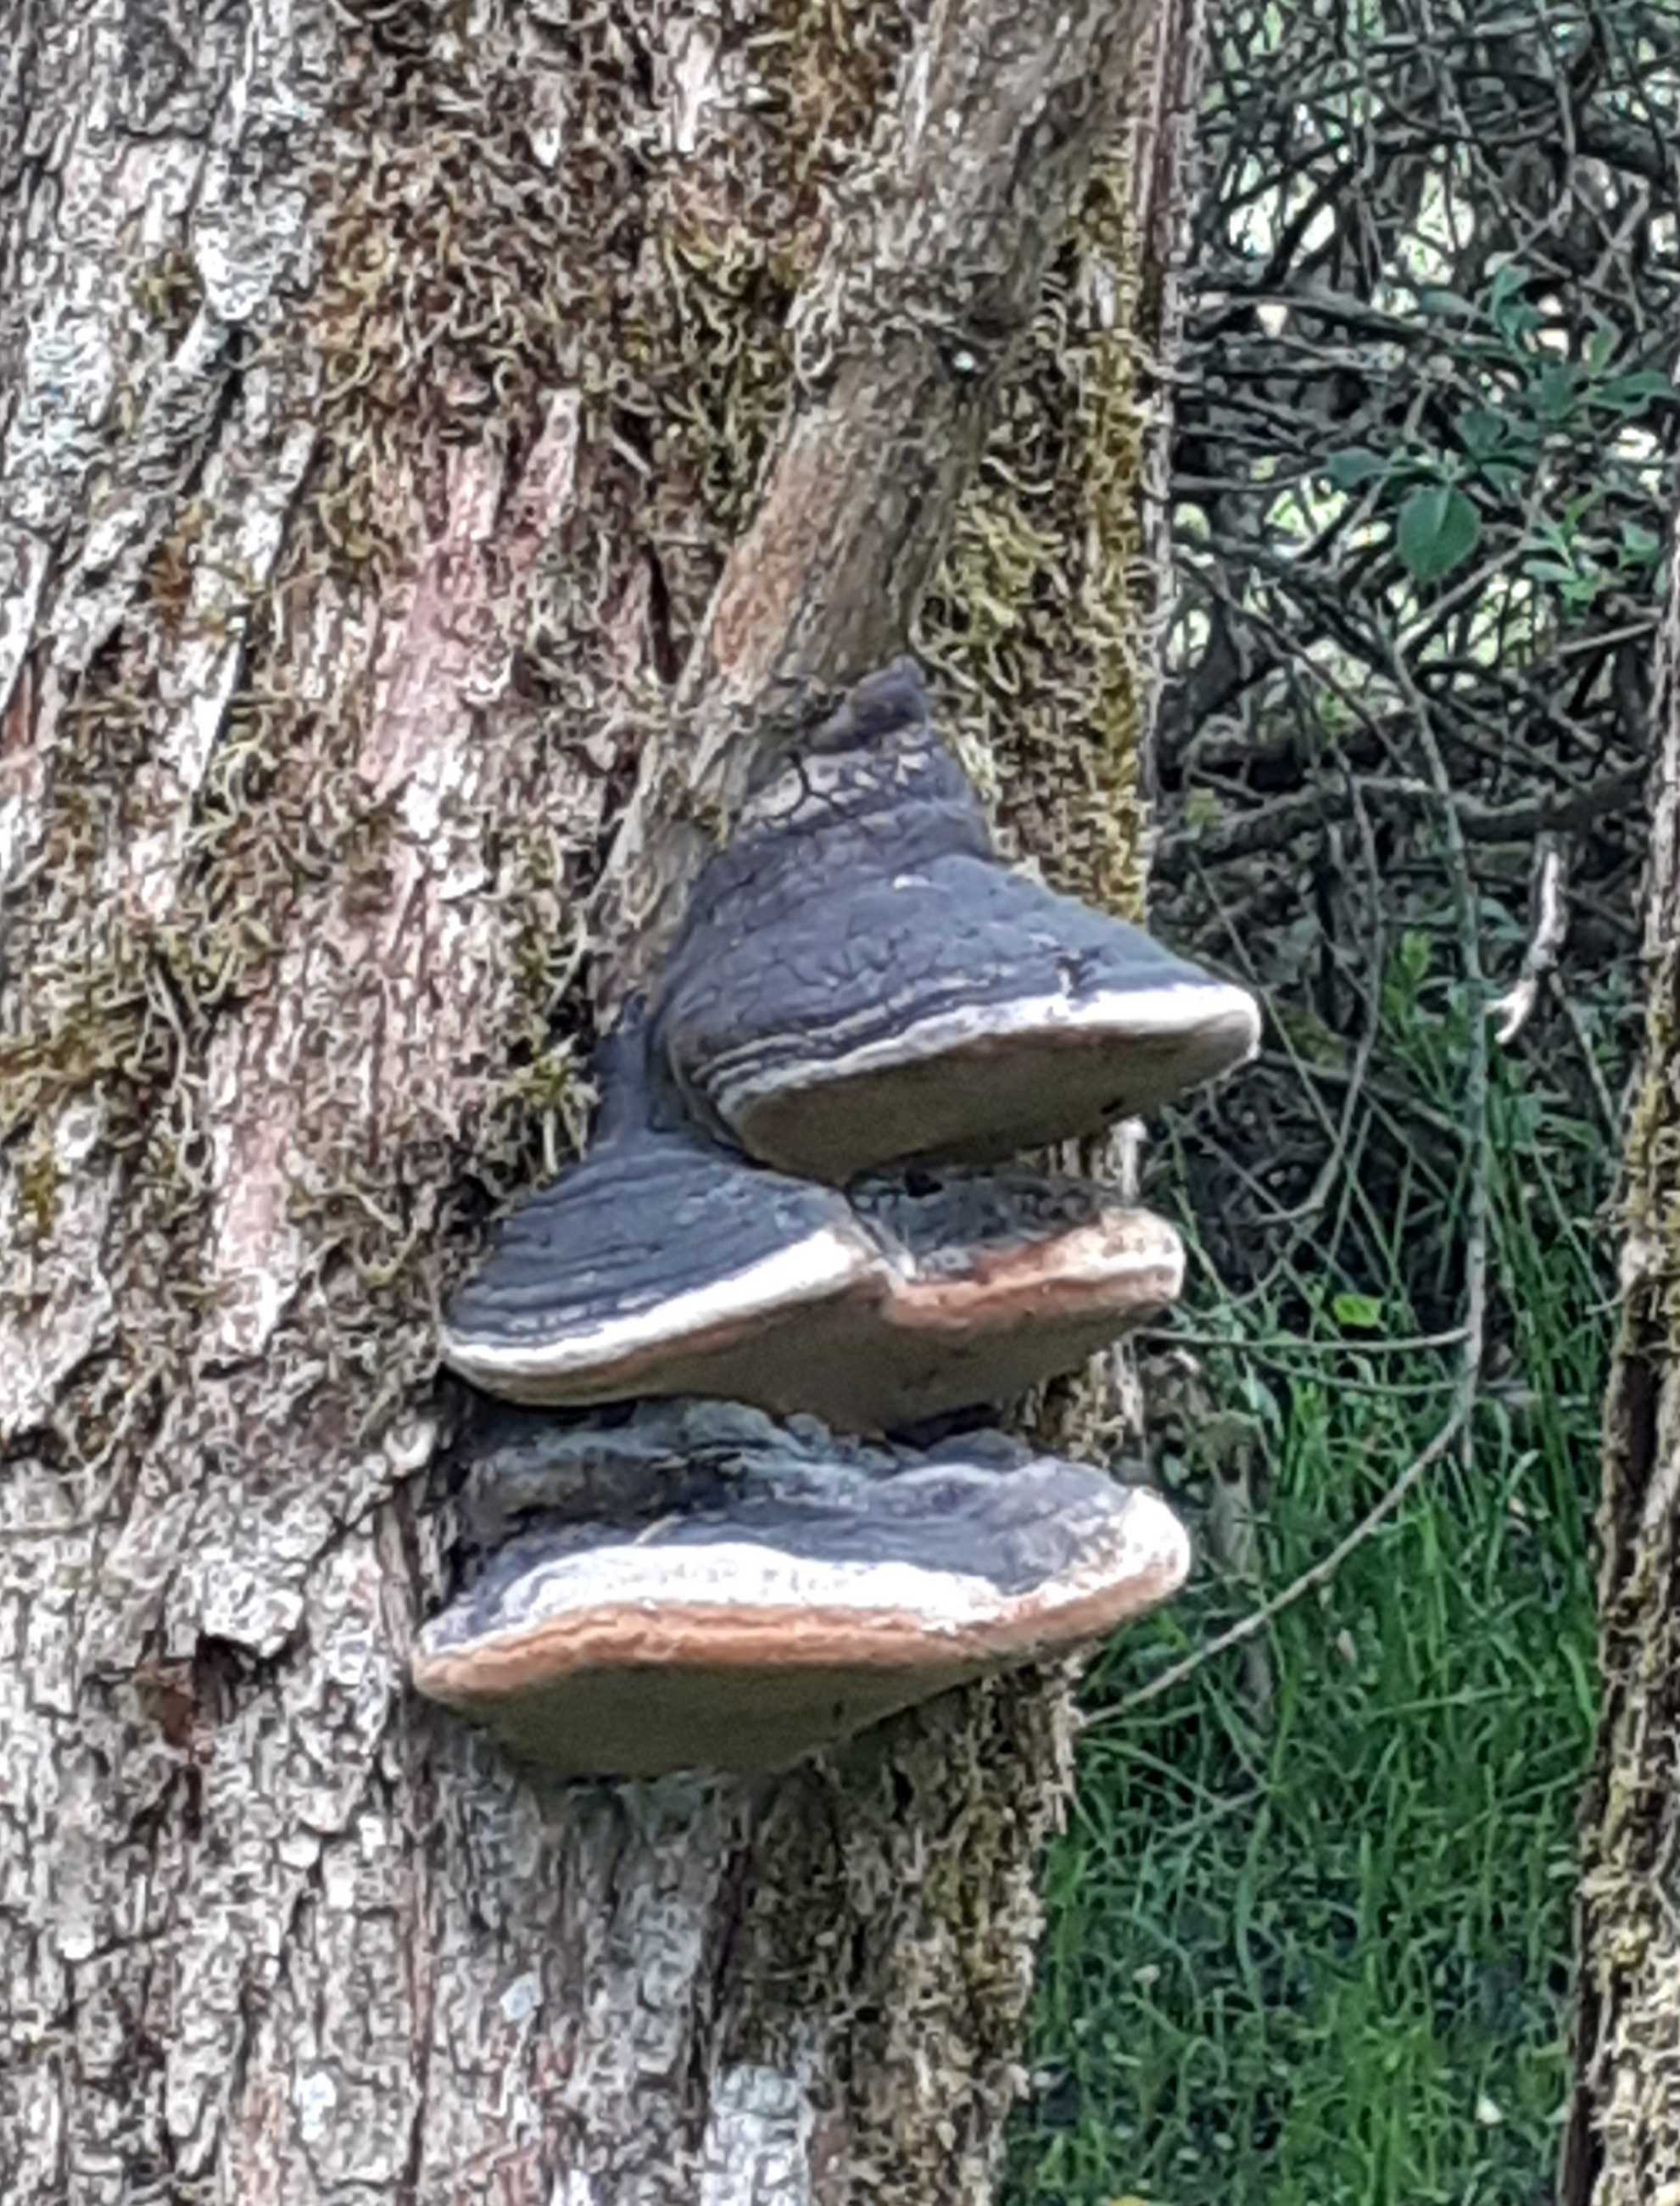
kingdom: Fungi
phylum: Basidiomycota
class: Agaricomycetes
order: Hymenochaetales
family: Hymenochaetaceae
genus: Phellinus
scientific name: Phellinus igniarius
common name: almindelig ildporesvamp
